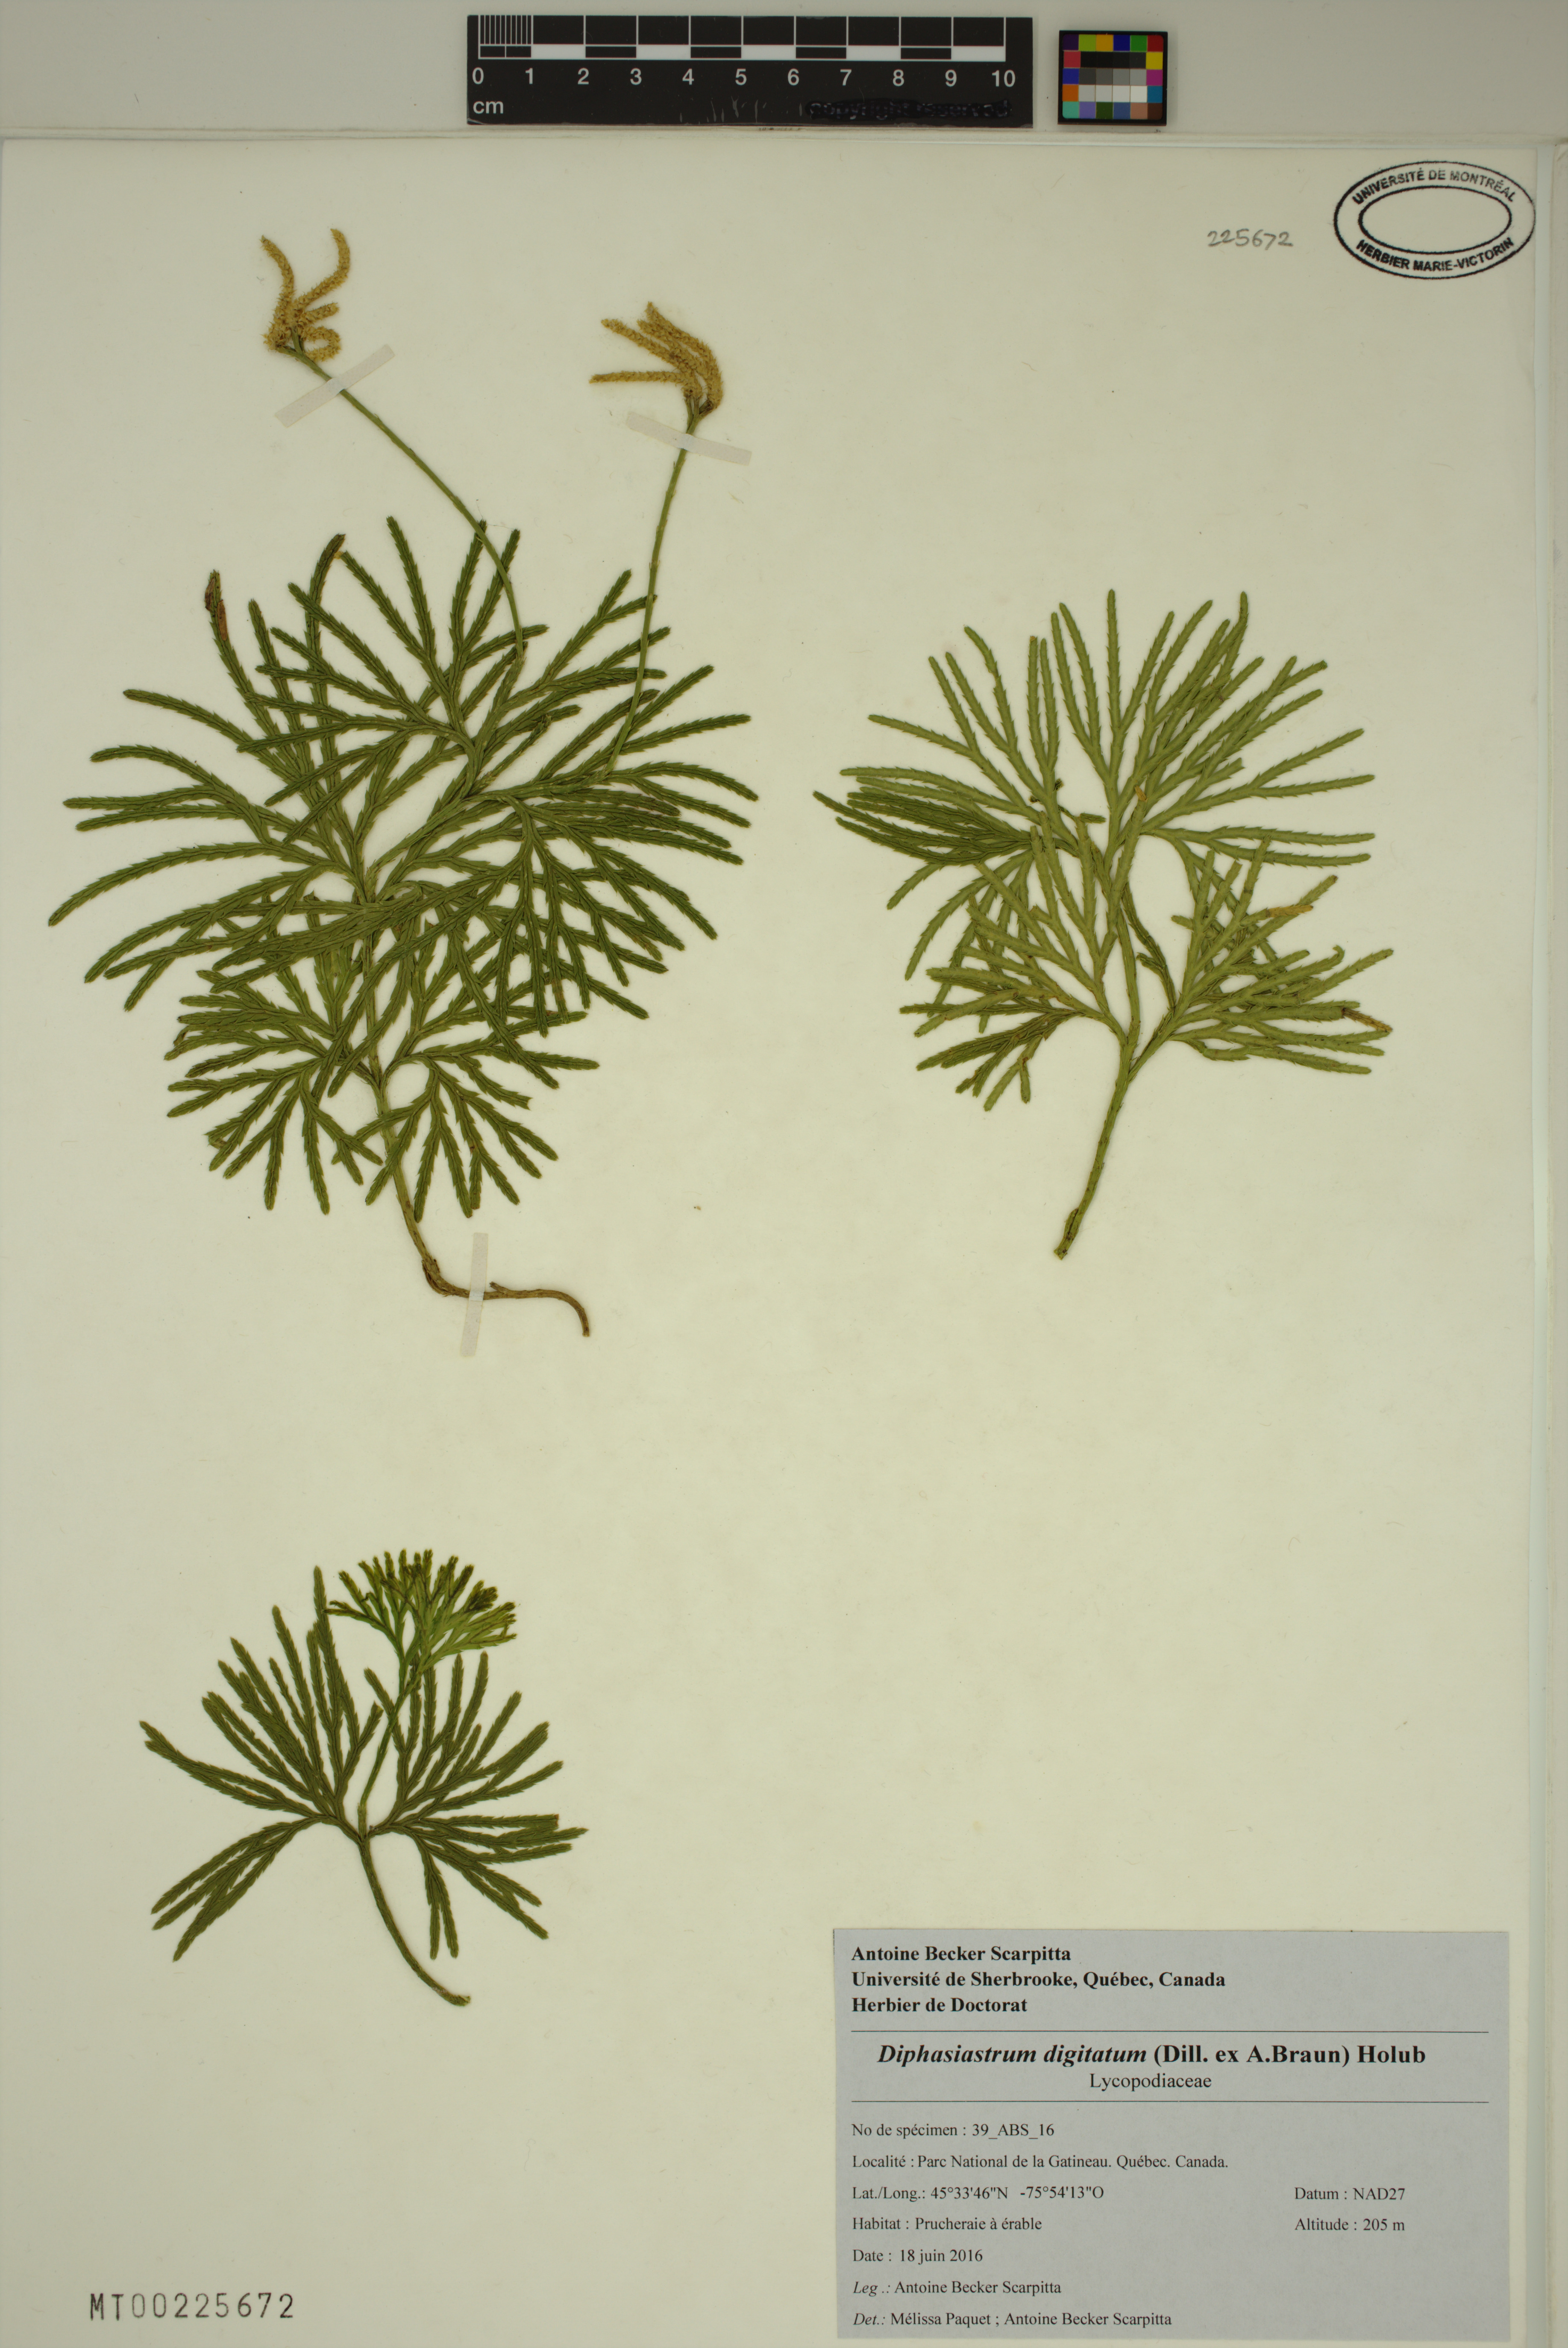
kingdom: Plantae
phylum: Tracheophyta
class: Lycopodiopsida
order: Lycopodiales
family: Lycopodiaceae
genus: Diphasiastrum
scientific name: Diphasiastrum digitatum
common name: Southern running-pine
